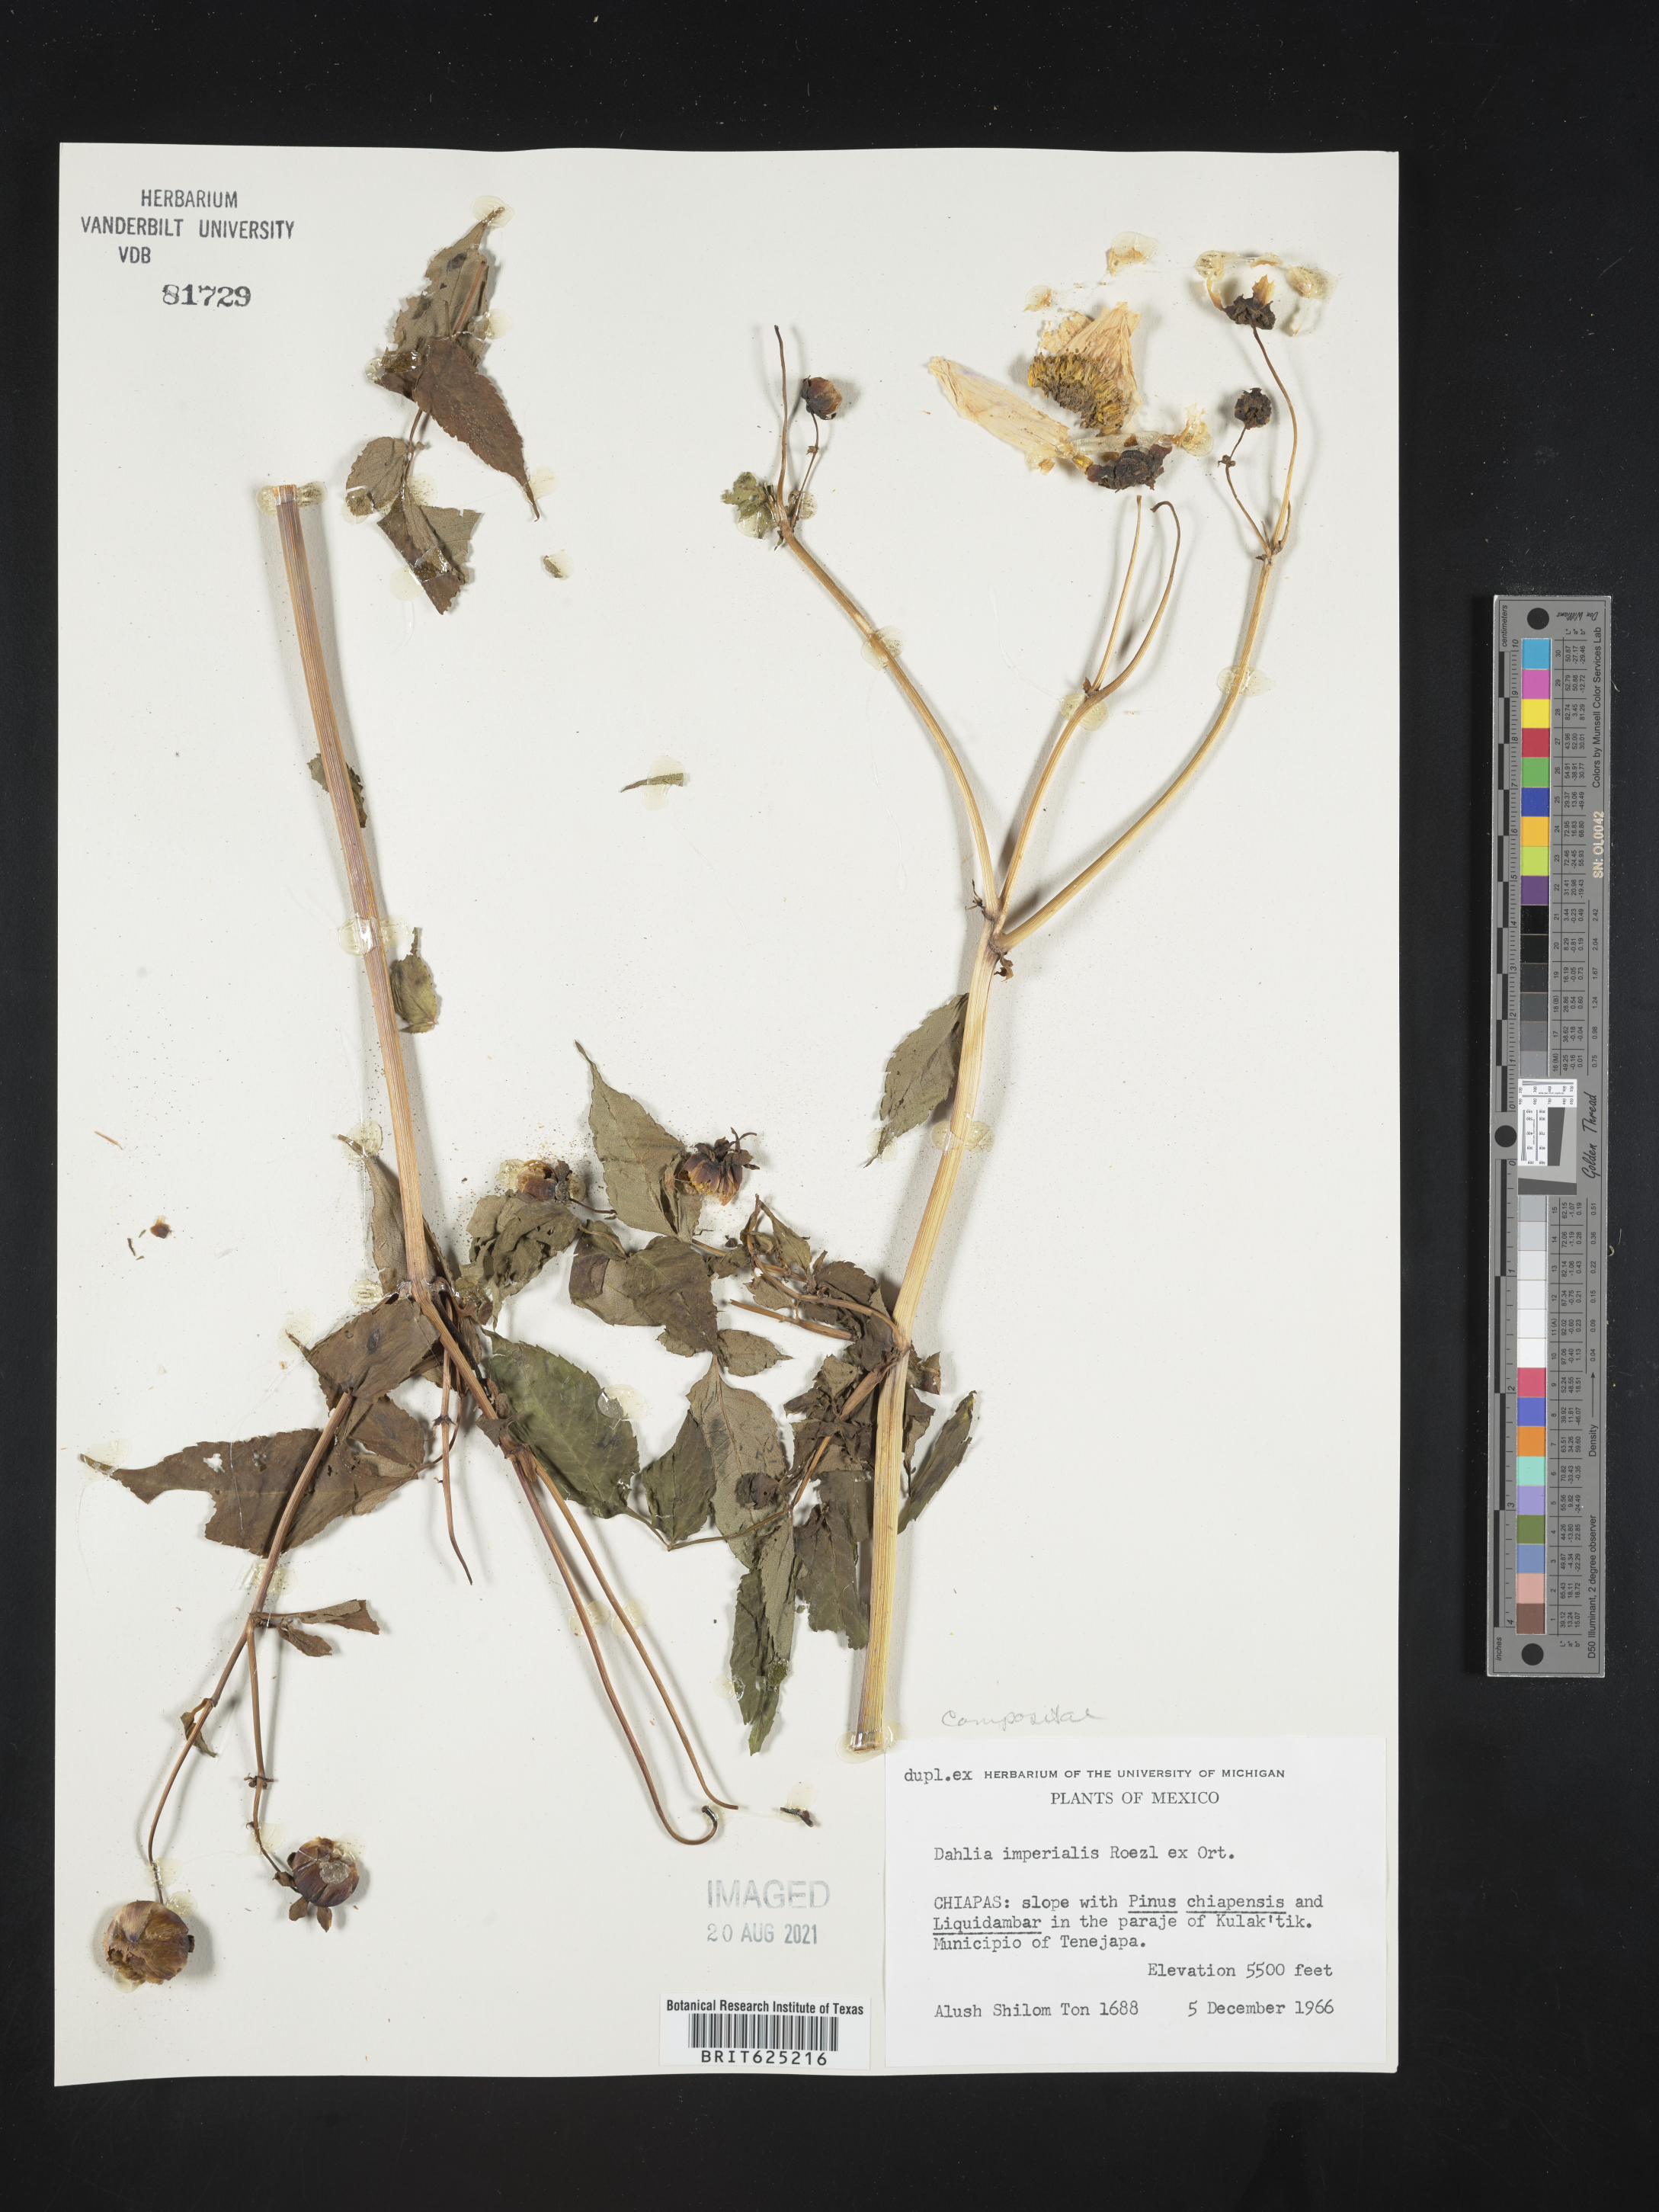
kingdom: Plantae
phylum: Tracheophyta
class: Magnoliopsida
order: Asterales
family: Asteraceae
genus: Dahlia
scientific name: Dahlia
